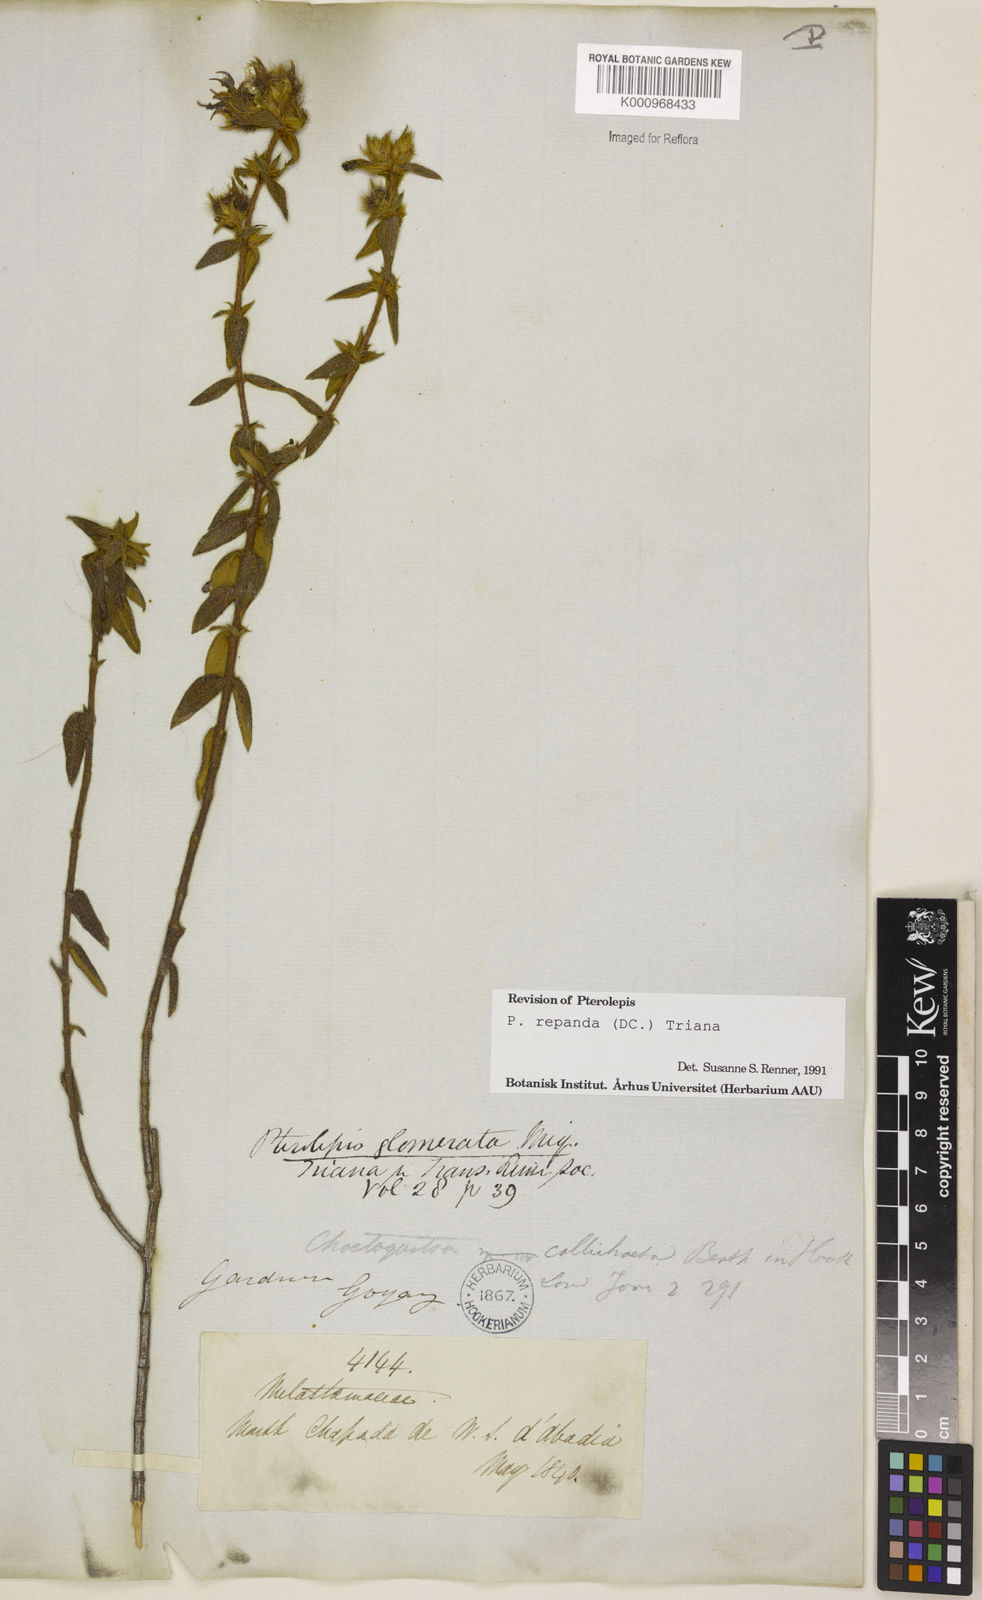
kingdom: Plantae
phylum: Tracheophyta
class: Magnoliopsida
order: Myrtales
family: Melastomataceae
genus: Pterolepis
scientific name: Pterolepis repanda
